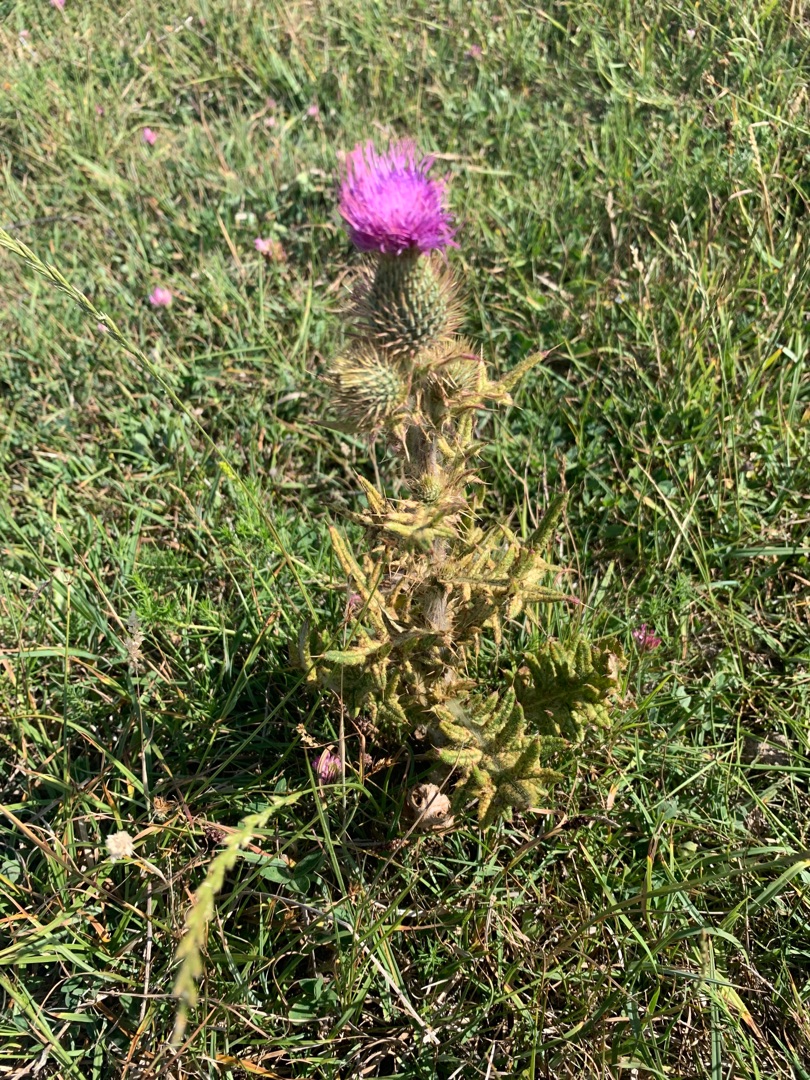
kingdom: Plantae
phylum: Tracheophyta
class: Magnoliopsida
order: Asterales
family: Asteraceae
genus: Cirsium
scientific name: Cirsium vulgare
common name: Horse-tidsel
